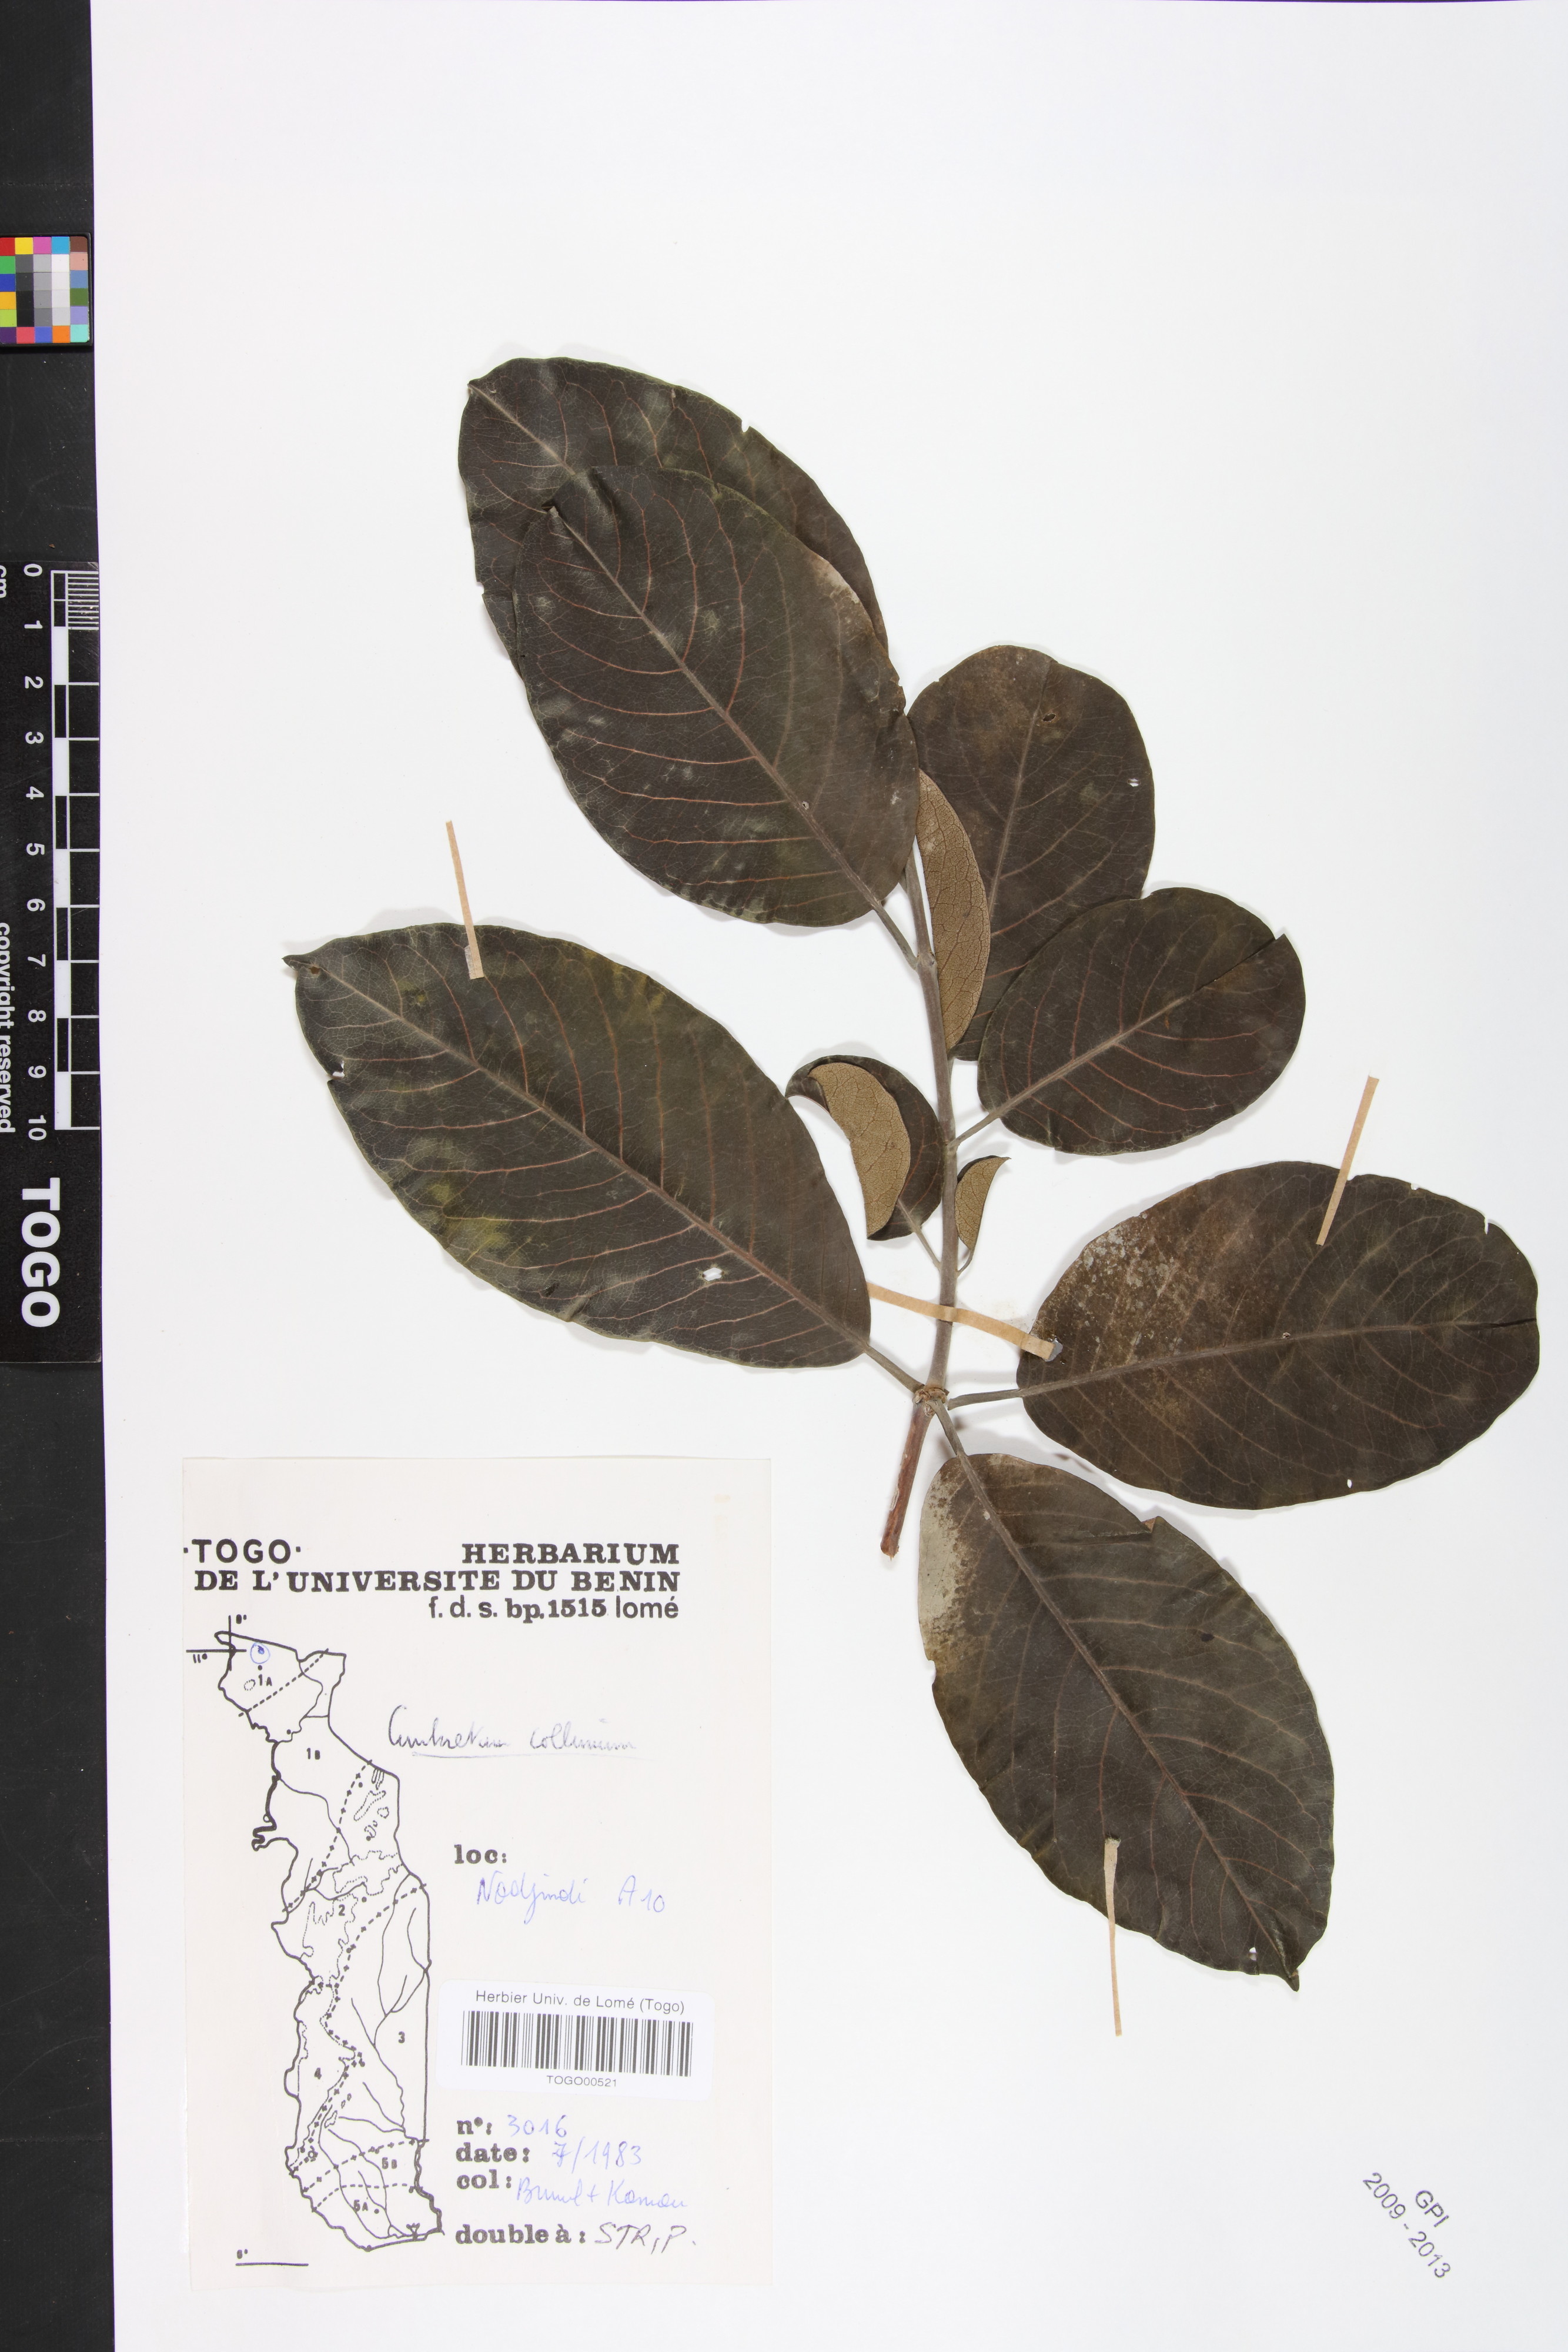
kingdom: Plantae
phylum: Tracheophyta
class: Magnoliopsida
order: Myrtales
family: Combretaceae
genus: Combretum
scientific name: Combretum collinum
